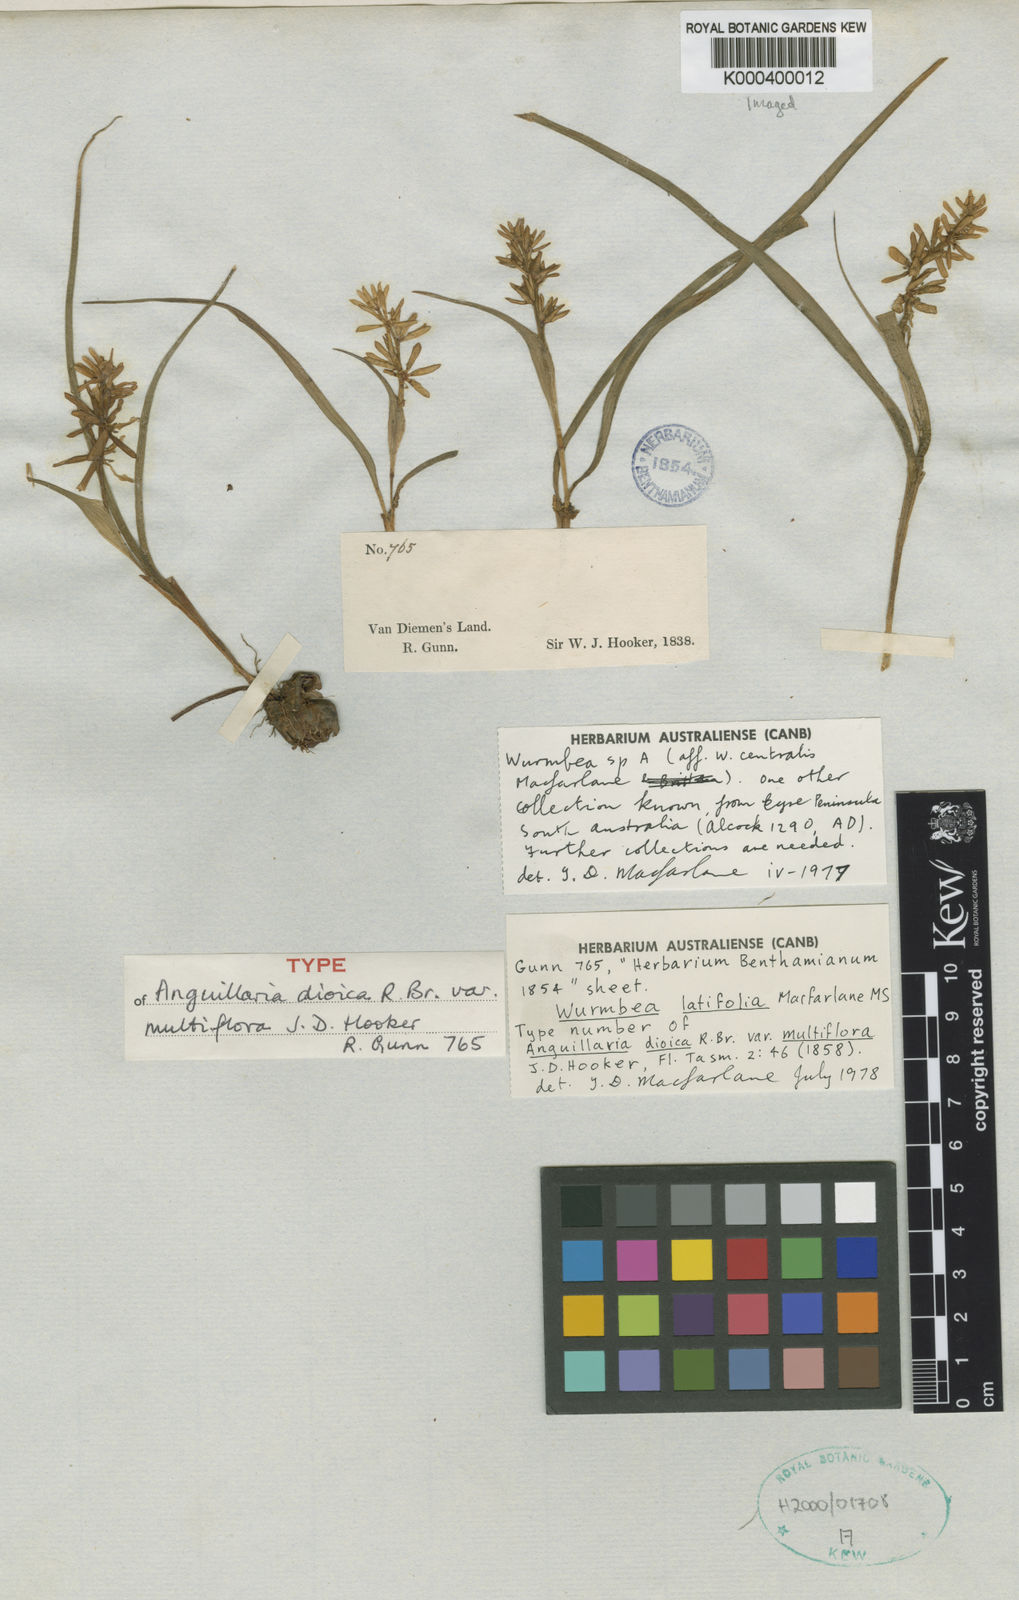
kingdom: Plantae
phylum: Tracheophyta
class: Liliopsida
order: Liliales
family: Colchicaceae
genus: Wurmbea
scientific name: Wurmbea latifolia
